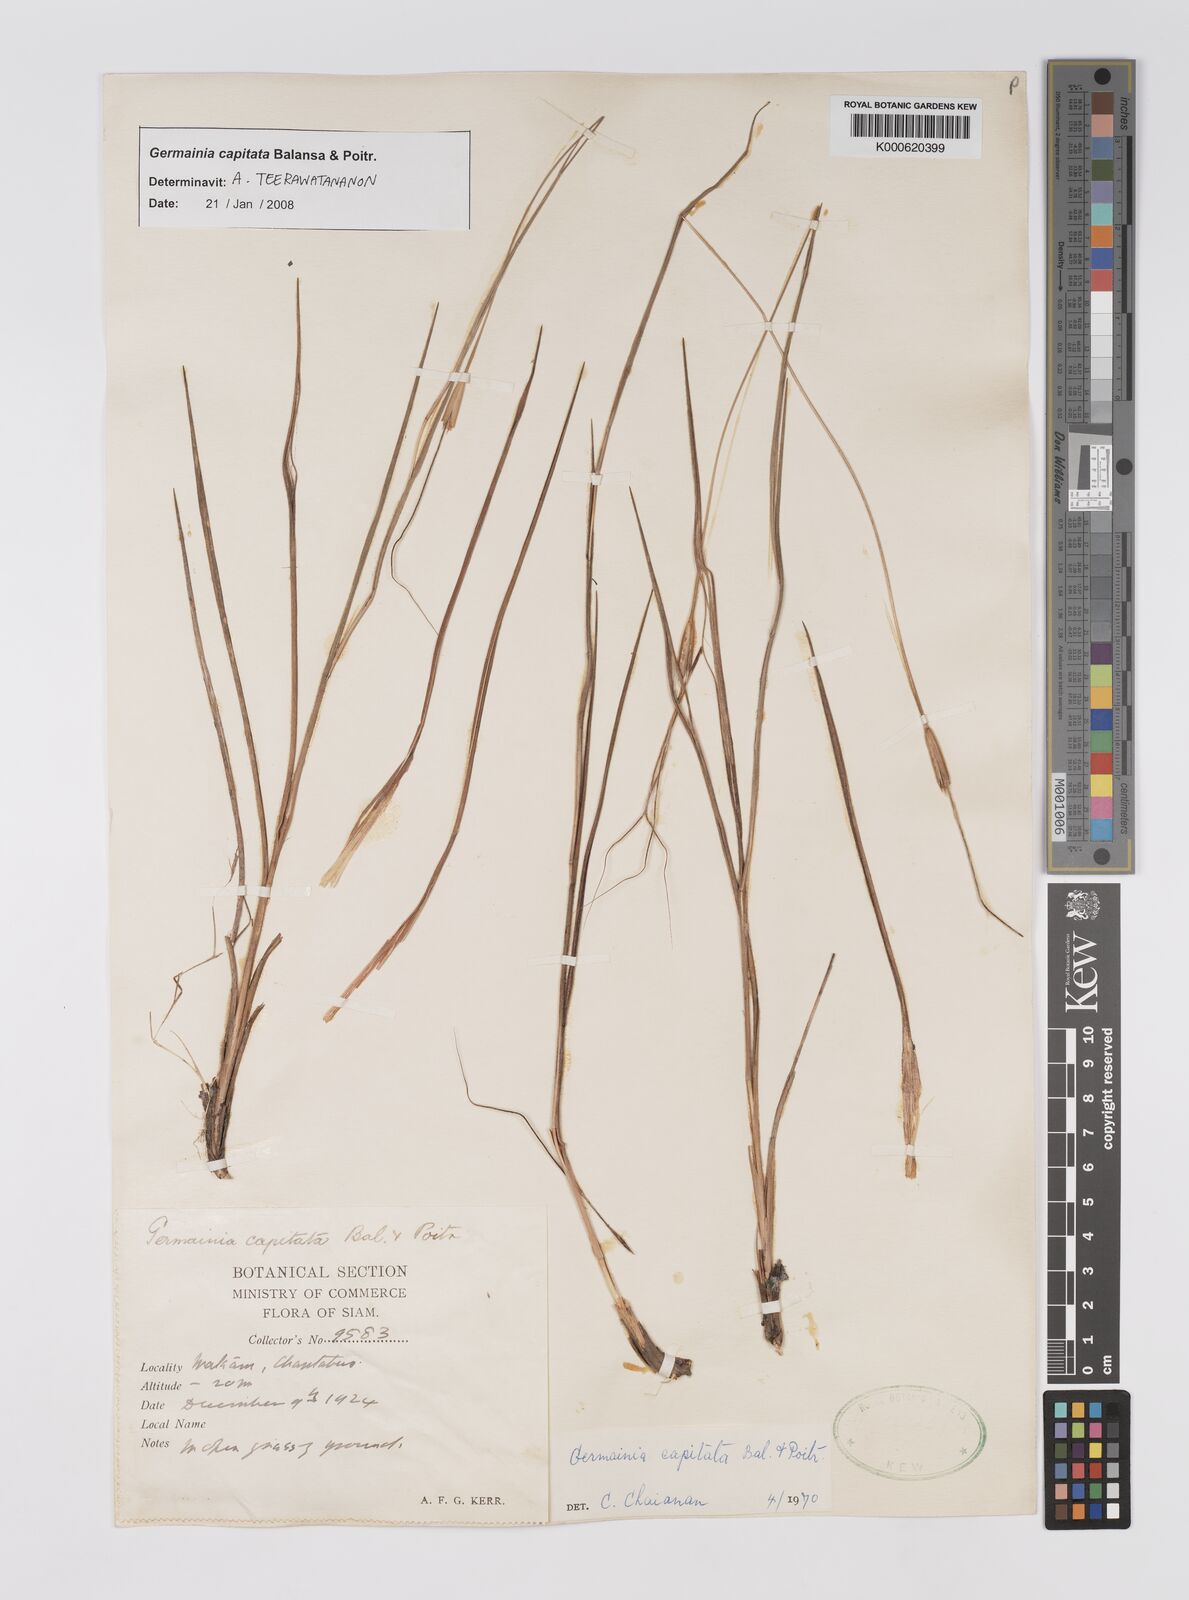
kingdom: Plantae
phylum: Tracheophyta
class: Liliopsida
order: Poales
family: Poaceae
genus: Germainia
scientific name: Germainia capitata
